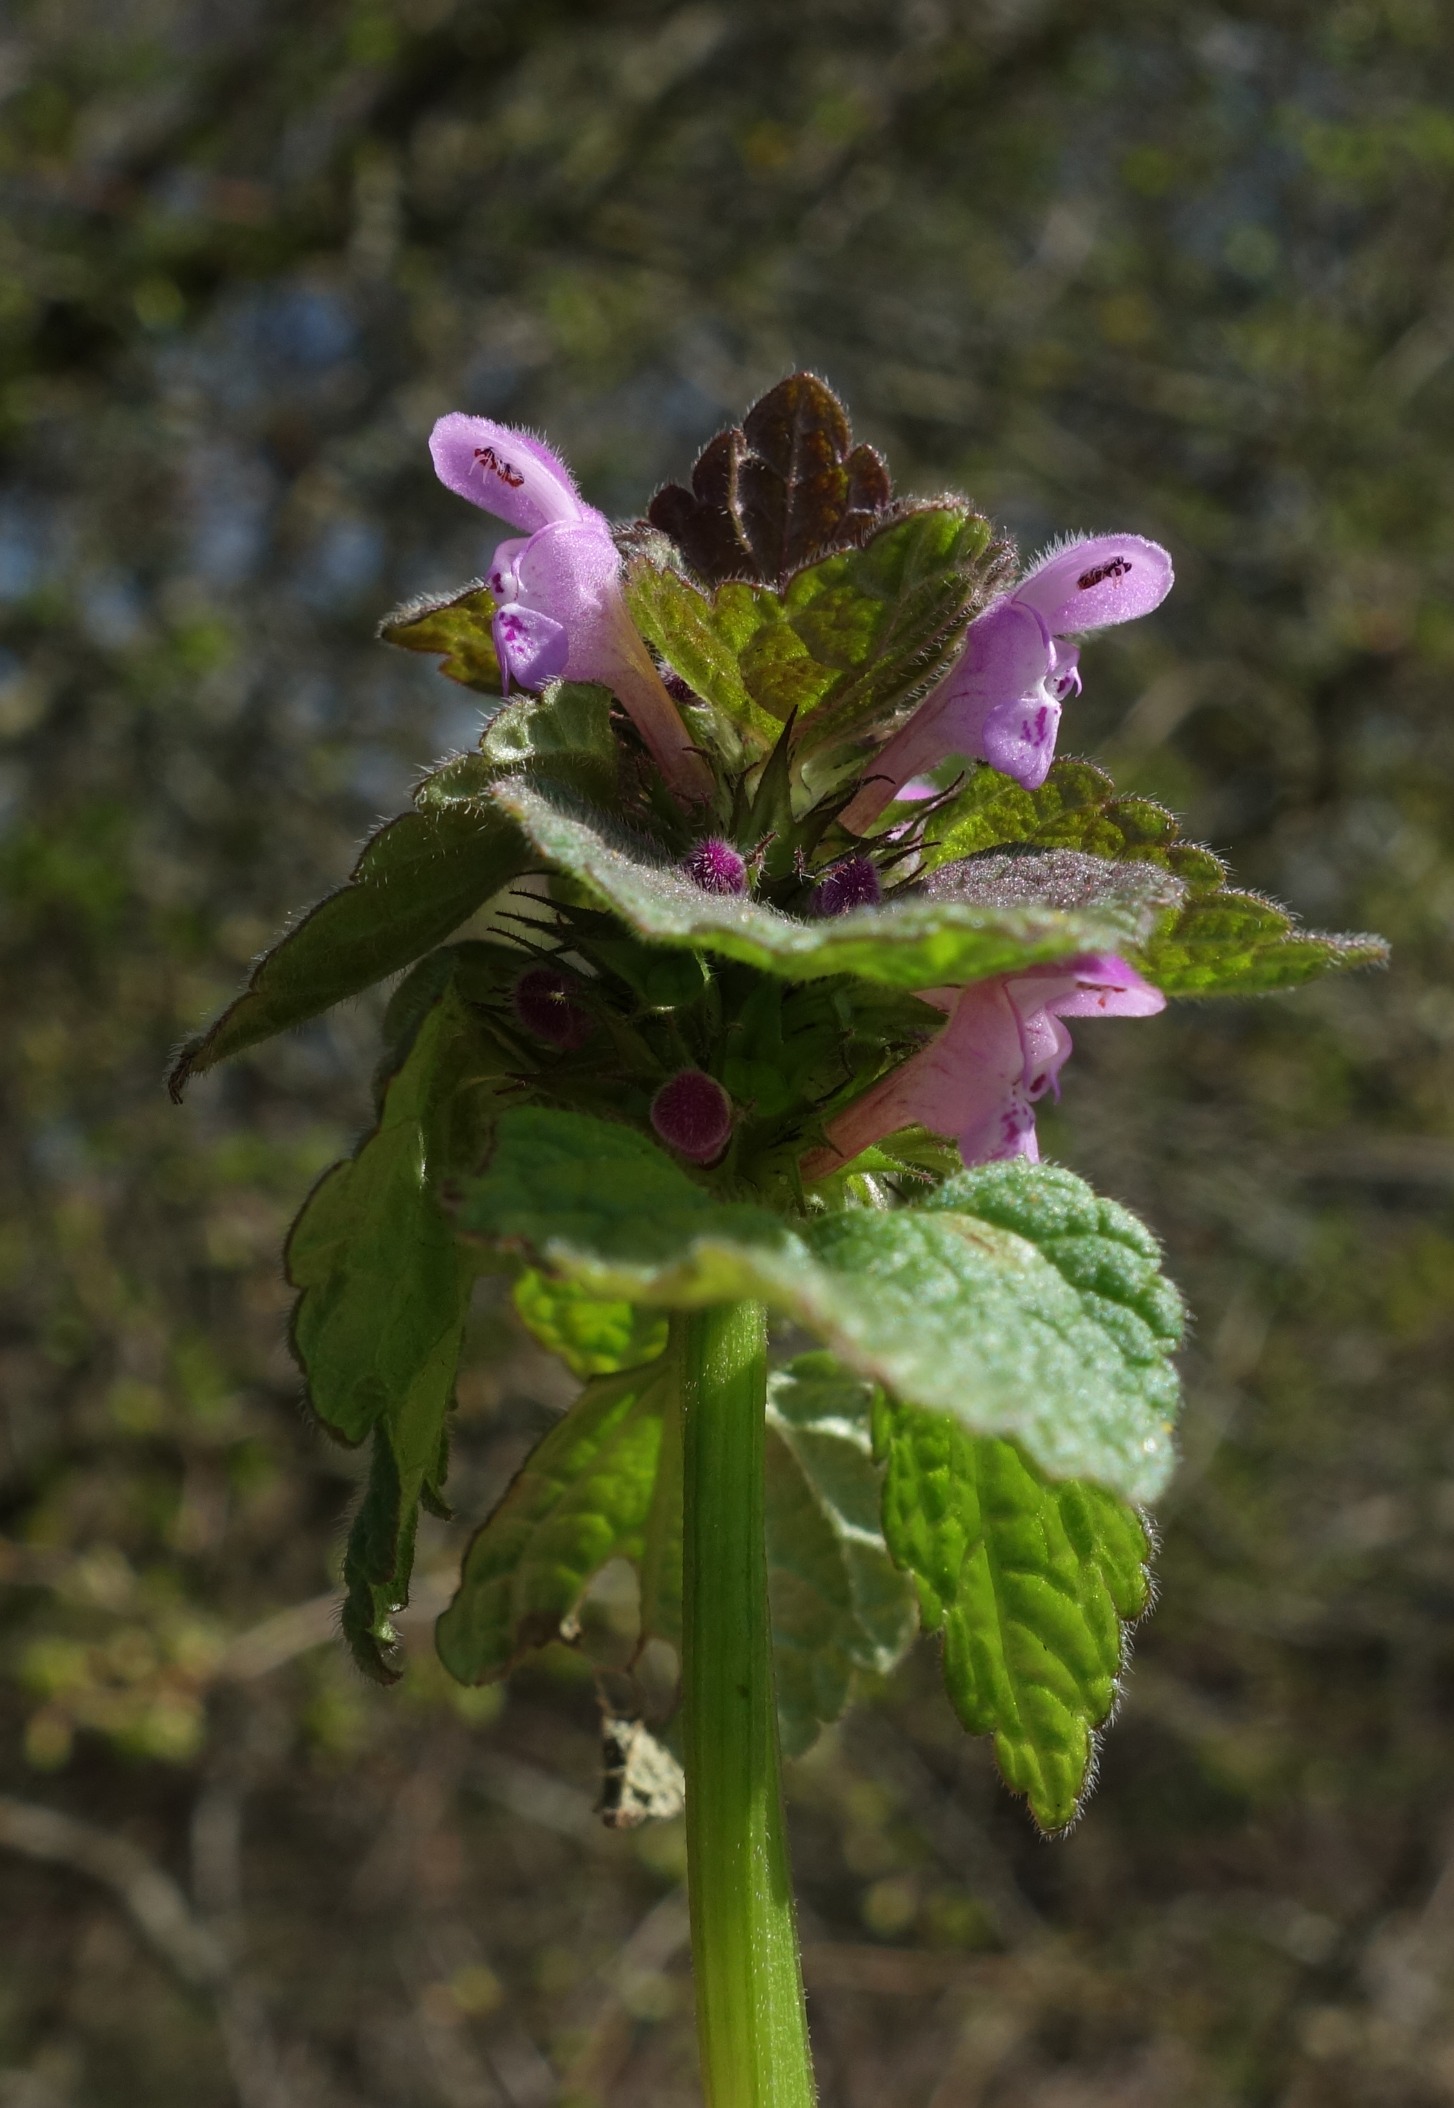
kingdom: Plantae
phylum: Tracheophyta
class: Magnoliopsida
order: Lamiales
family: Lamiaceae
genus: Lamium
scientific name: Lamium purpureum
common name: Rød tvetand
